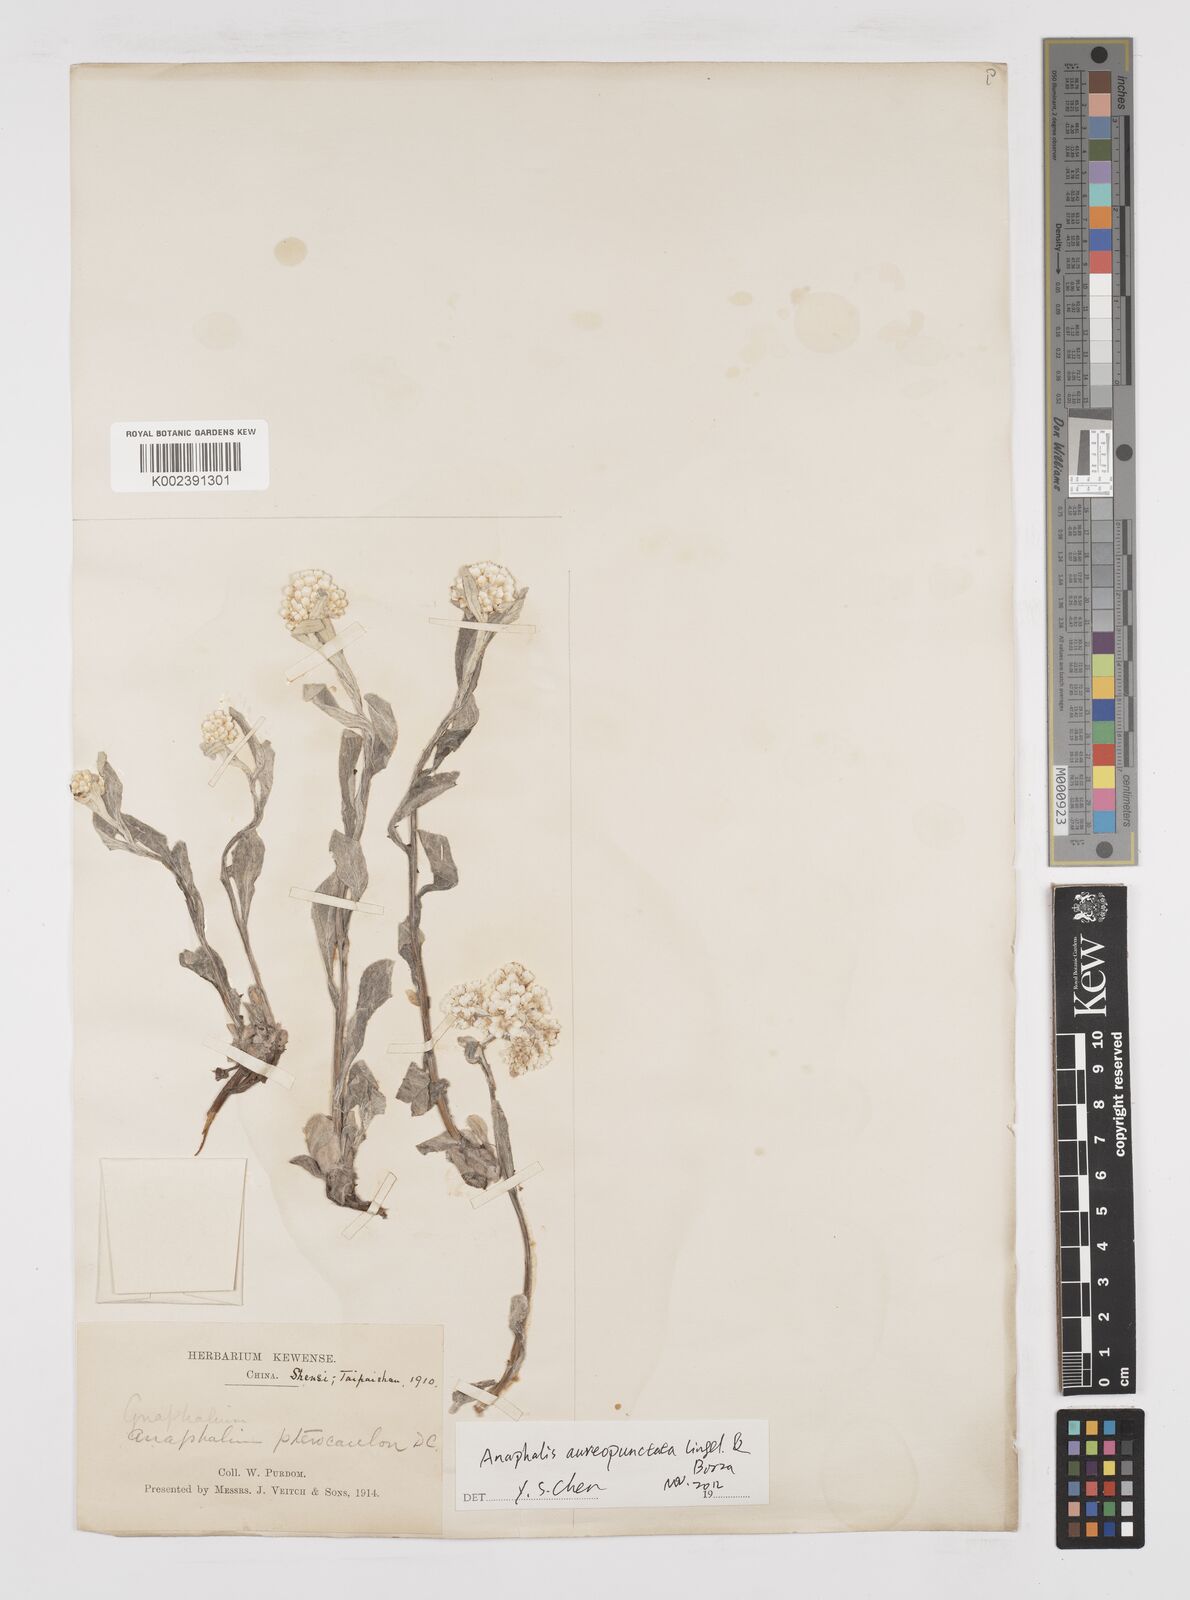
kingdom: Plantae
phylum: Tracheophyta
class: Magnoliopsida
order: Asterales
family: Asteraceae
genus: Anaphalis
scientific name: Anaphalis sinica
